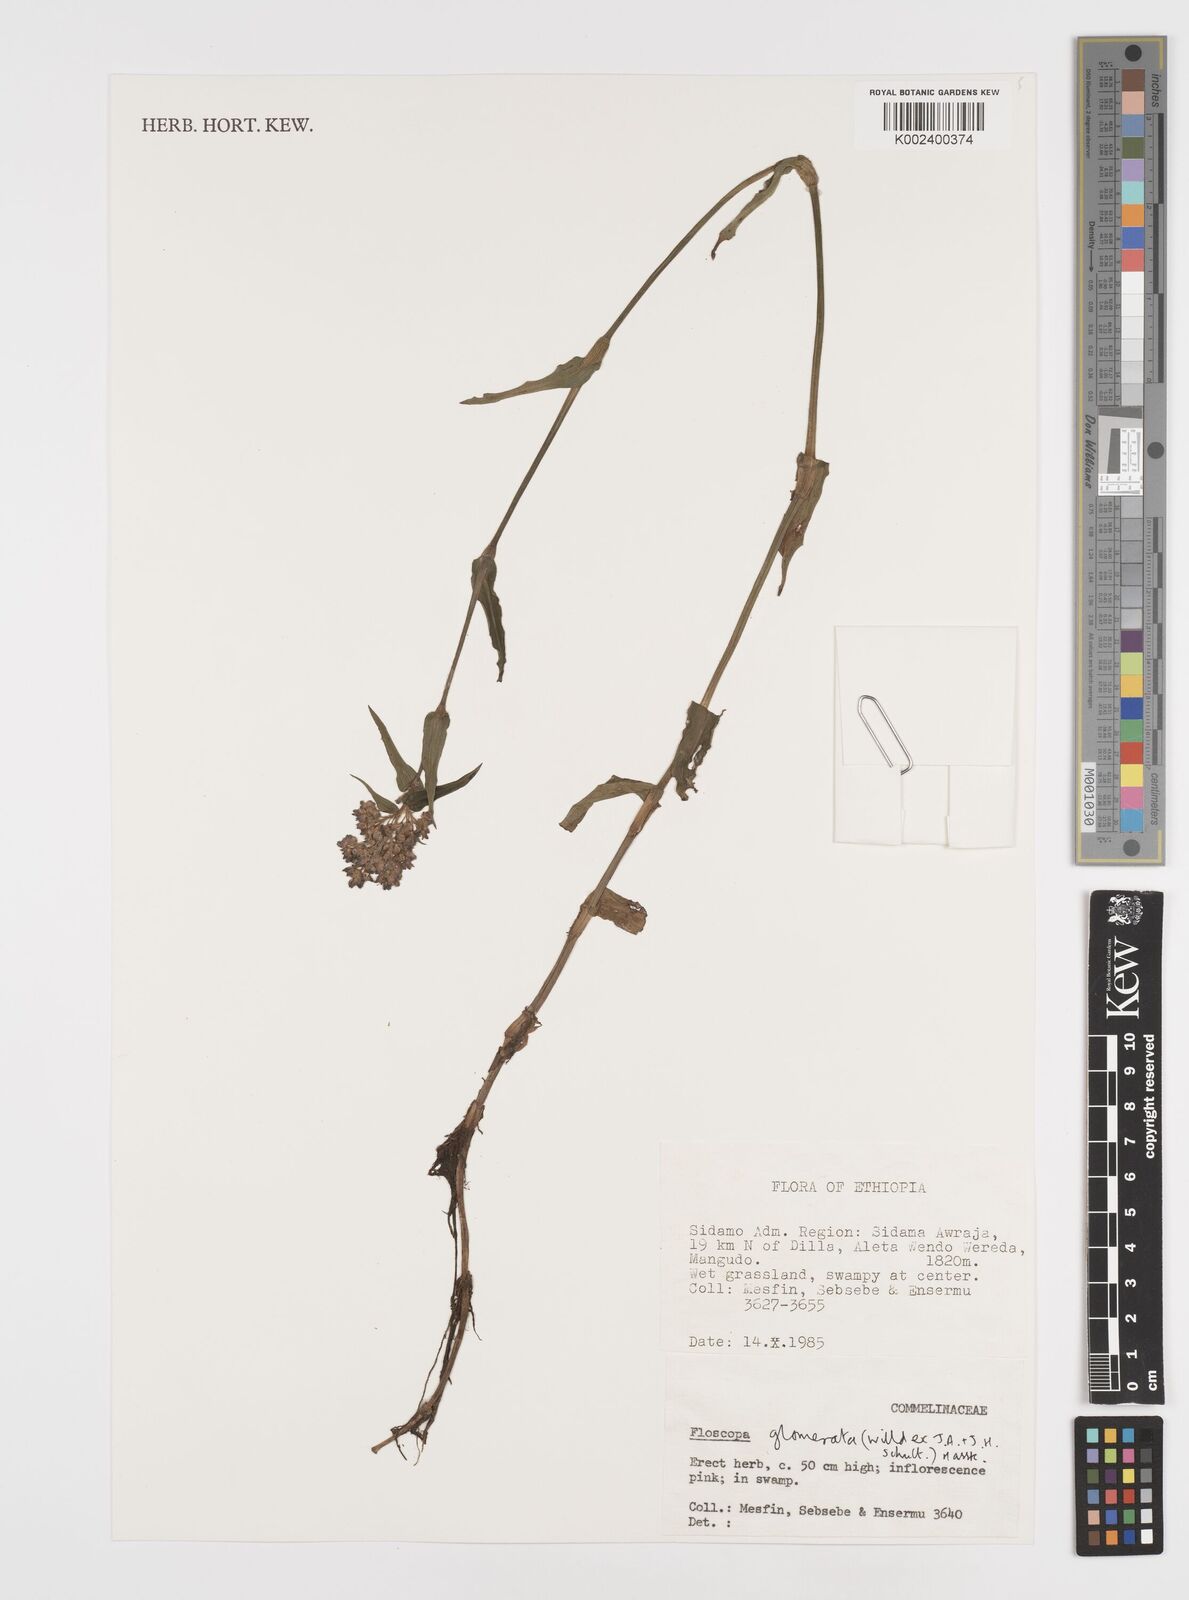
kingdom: Plantae
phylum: Tracheophyta
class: Liliopsida
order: Commelinales
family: Commelinaceae
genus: Floscopa
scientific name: Floscopa glomerata
